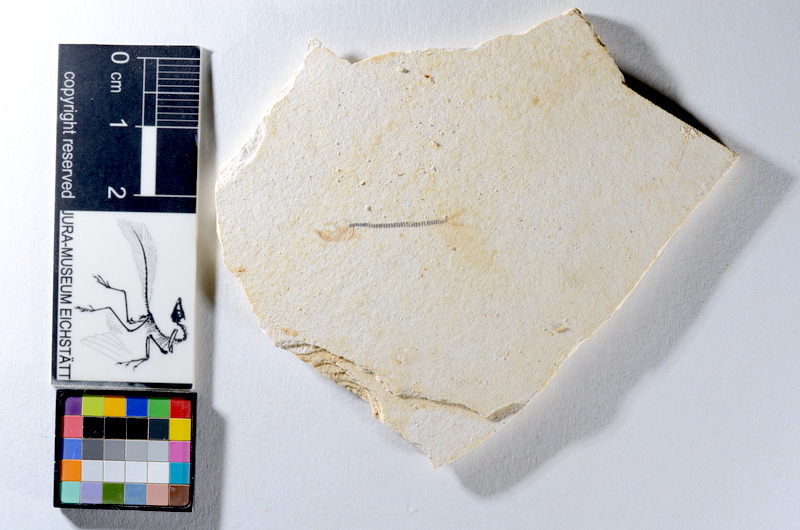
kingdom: Animalia
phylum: Chordata
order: Salmoniformes
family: Orthogonikleithridae
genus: Orthogonikleithrus
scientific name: Orthogonikleithrus hoelli
